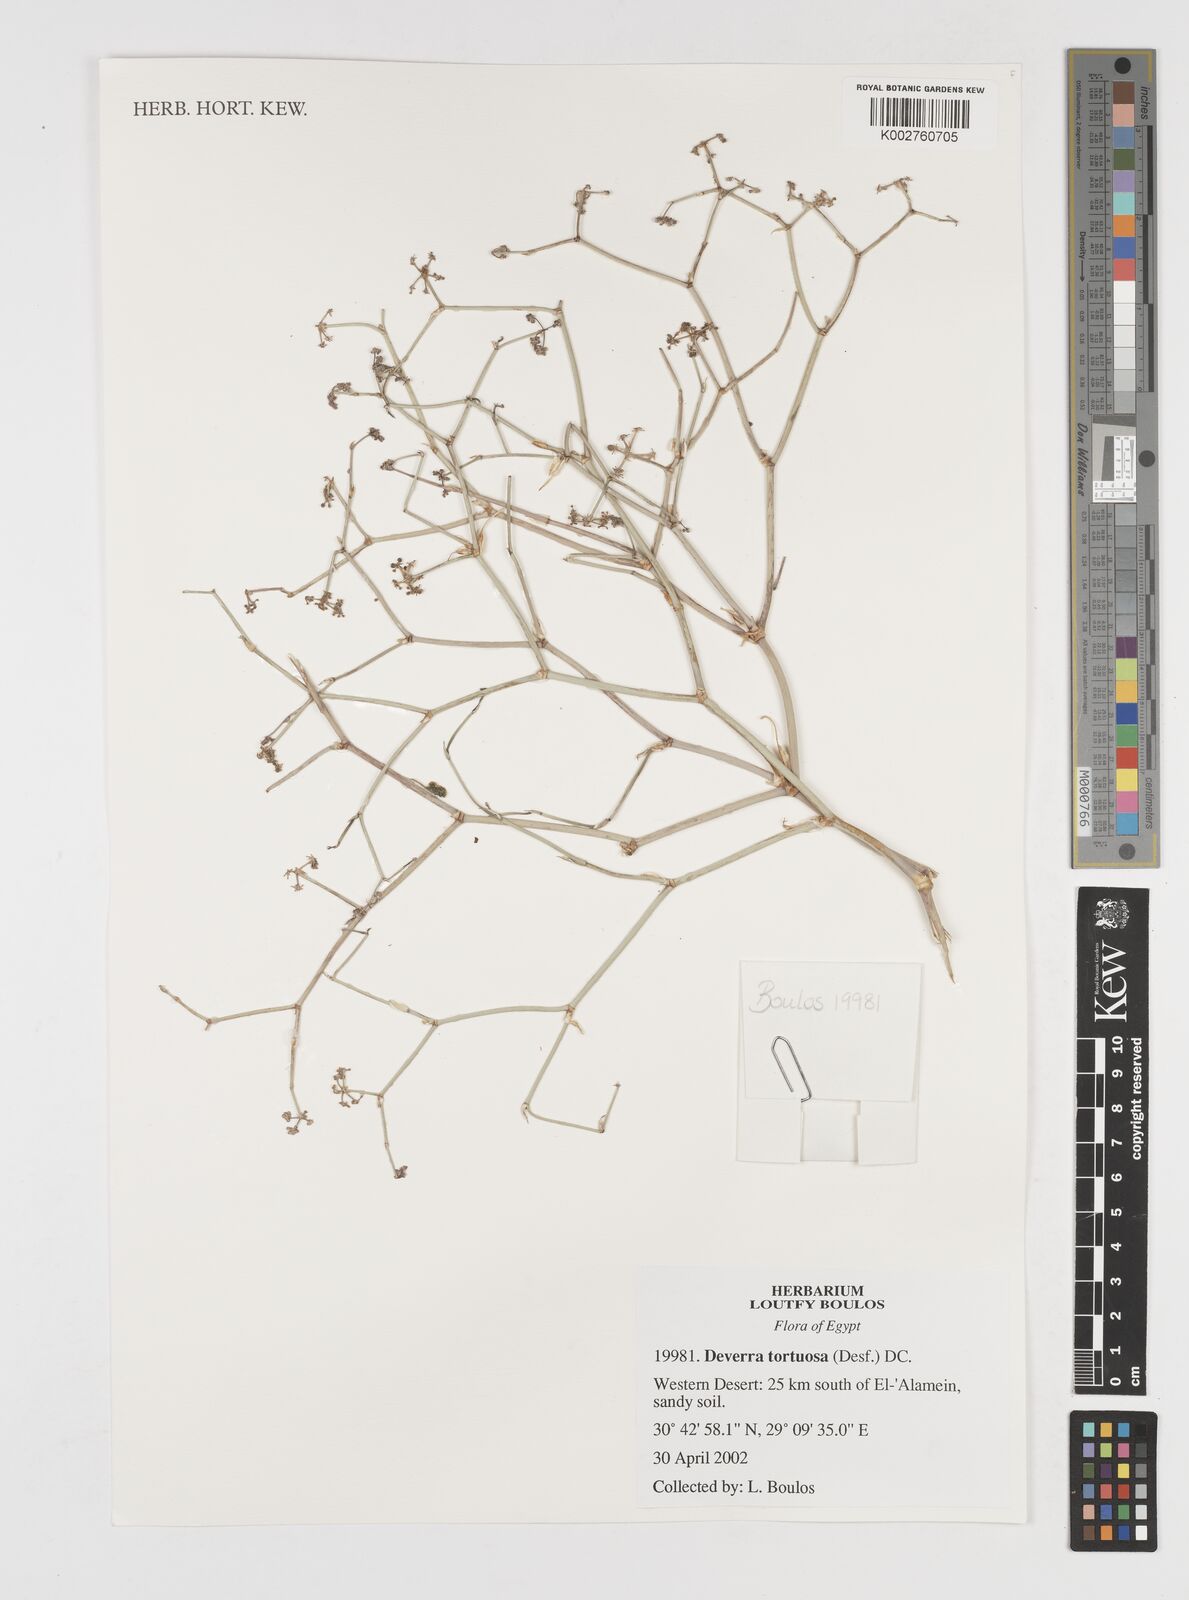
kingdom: Plantae
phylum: Tracheophyta
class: Magnoliopsida
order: Apiales
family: Apiaceae
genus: Deverra
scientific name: Deverra denudata
